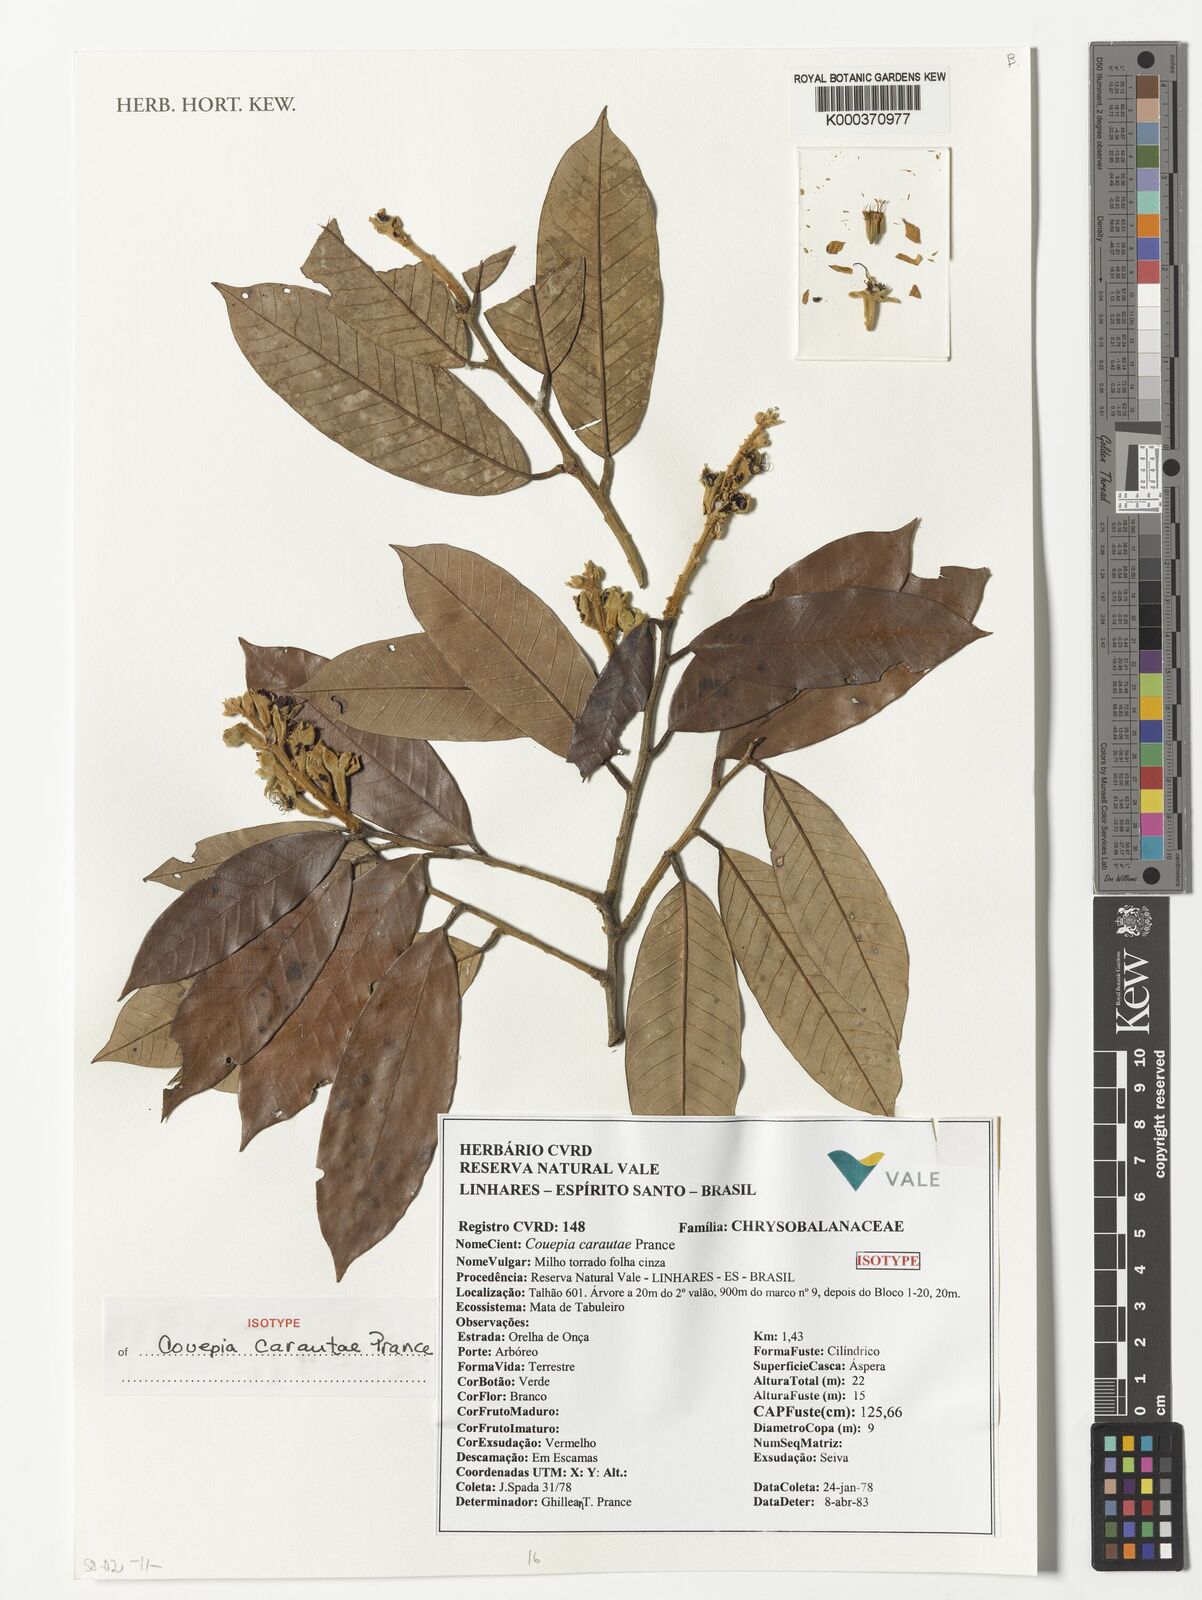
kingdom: Plantae
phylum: Tracheophyta
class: Magnoliopsida
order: Malpighiales
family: Chrysobalanaceae
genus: Couepia
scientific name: Couepia carautae
